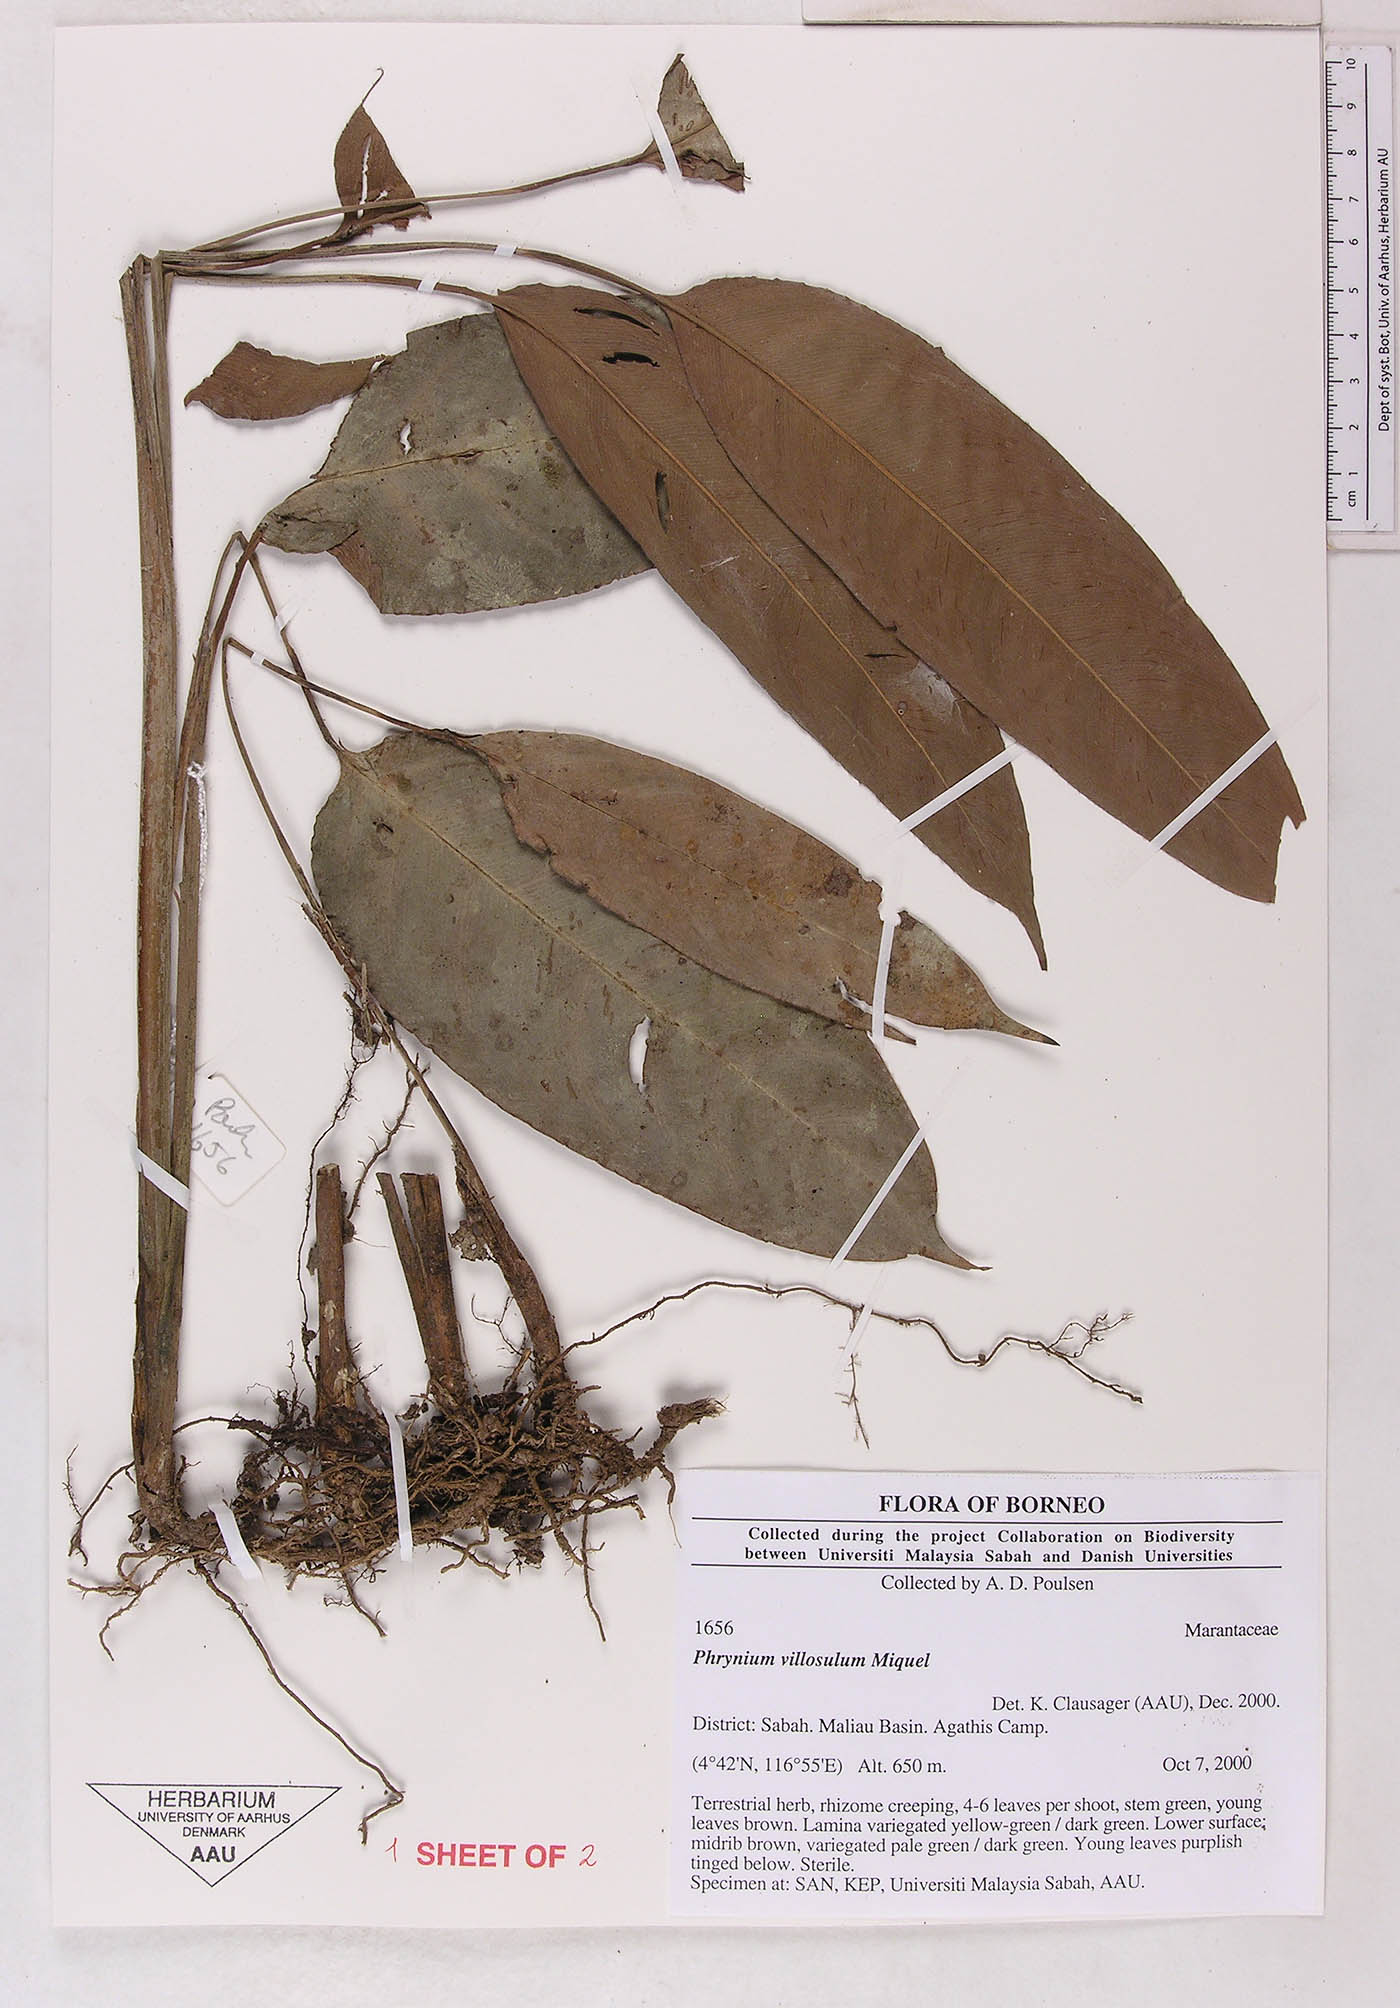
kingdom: Plantae
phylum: Tracheophyta
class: Liliopsida
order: Zingiberales
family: Marantaceae
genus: Phrynium
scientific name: Phrynium villosulum
